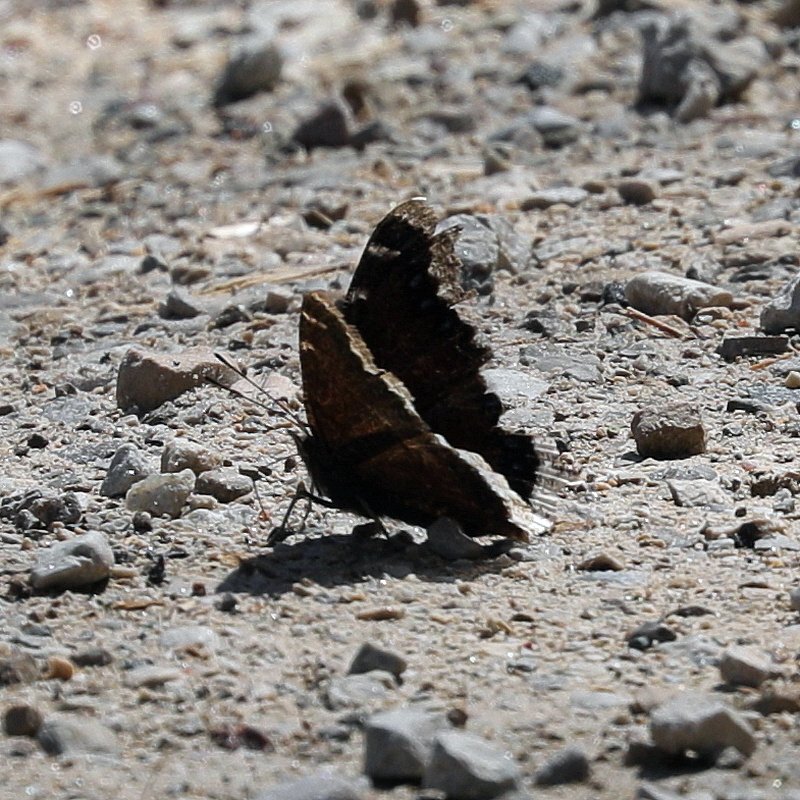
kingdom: Animalia
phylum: Arthropoda
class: Insecta
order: Lepidoptera
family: Nymphalidae
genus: Nymphalis
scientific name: Nymphalis antiopa
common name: Mourning Cloak
